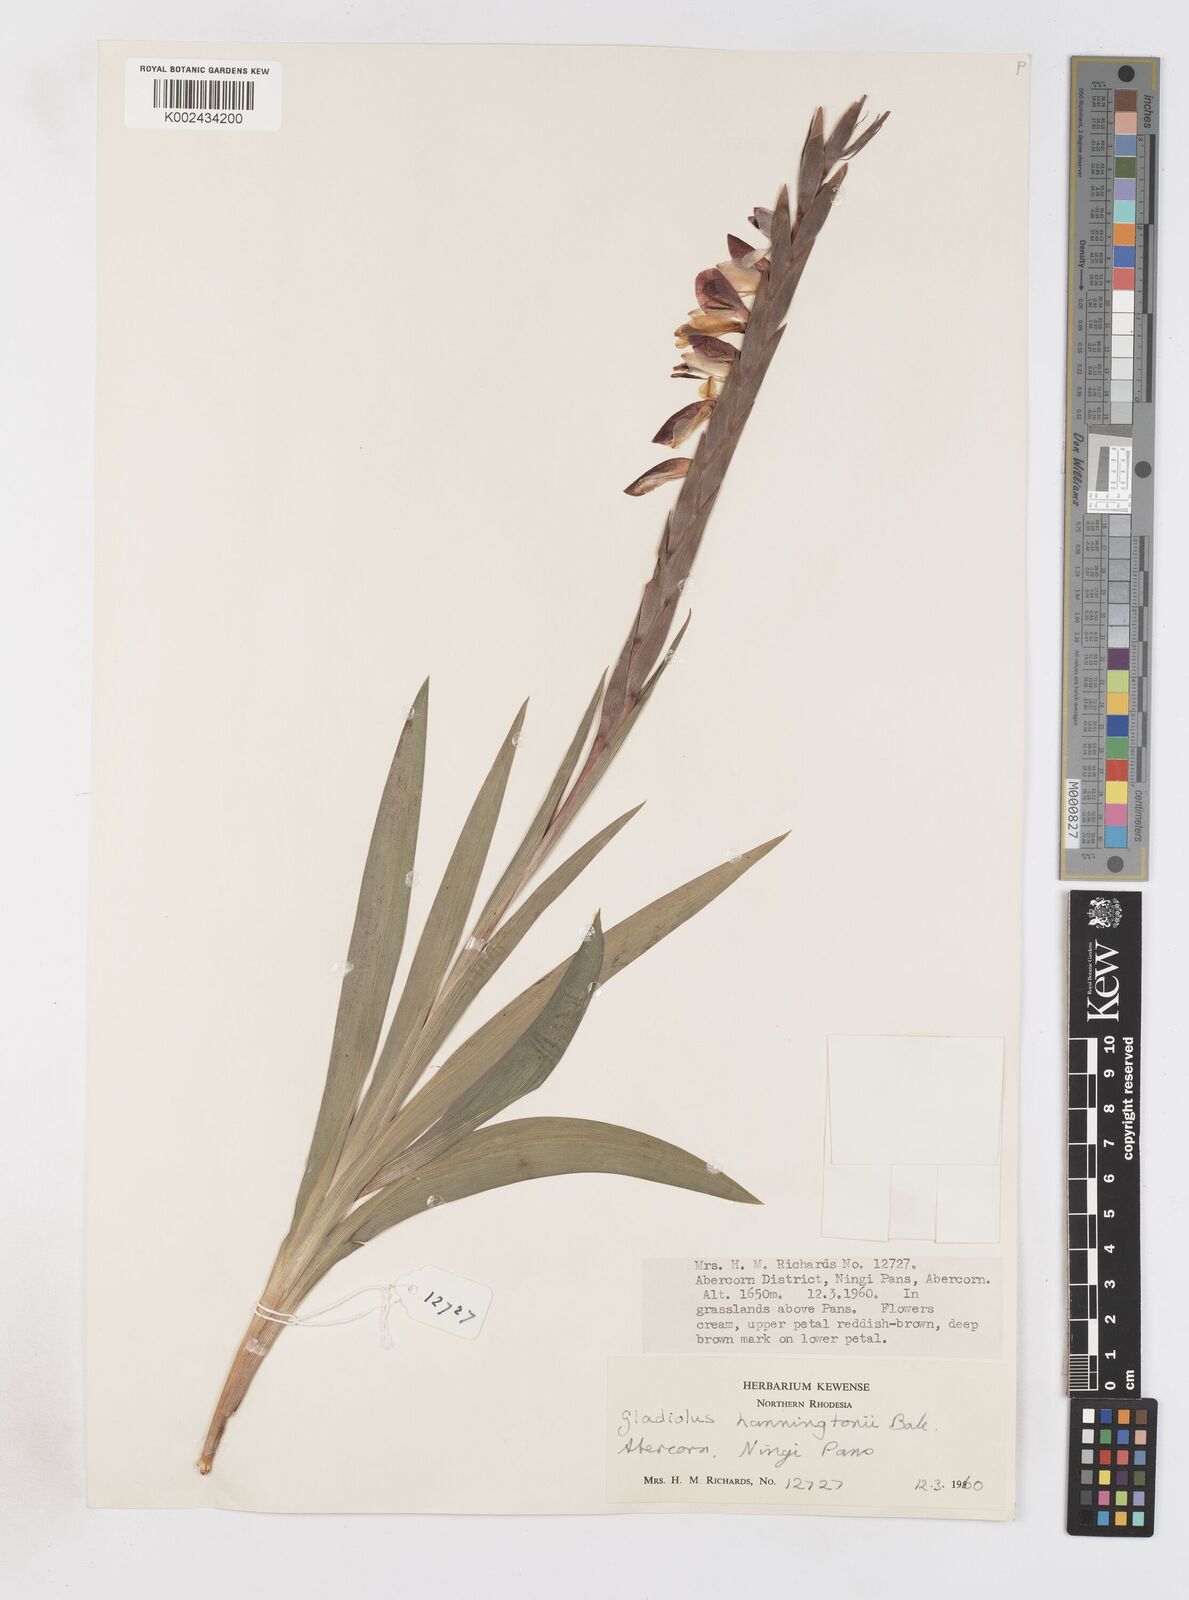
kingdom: Plantae
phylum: Tracheophyta
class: Liliopsida
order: Asparagales
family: Iridaceae
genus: Gladiolus
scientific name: Gladiolus gregarius
